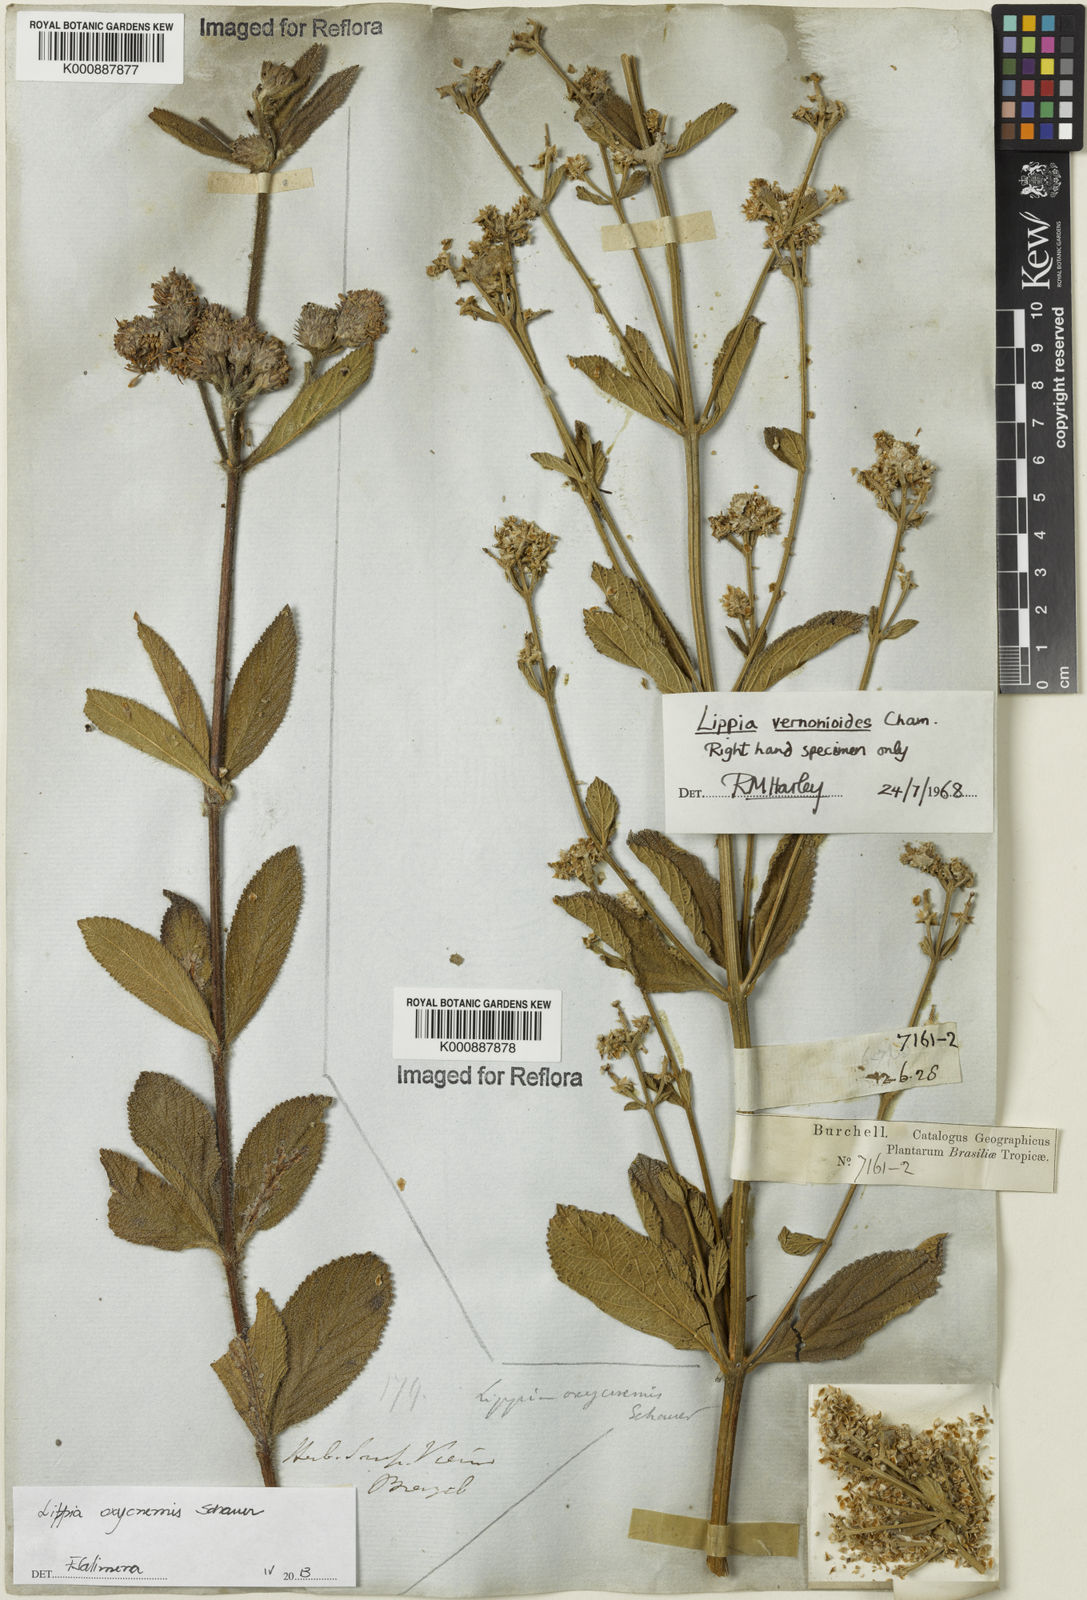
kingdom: Plantae
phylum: Tracheophyta
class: Magnoliopsida
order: Lamiales
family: Verbenaceae
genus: Lippia
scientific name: Lippia vernonioides
